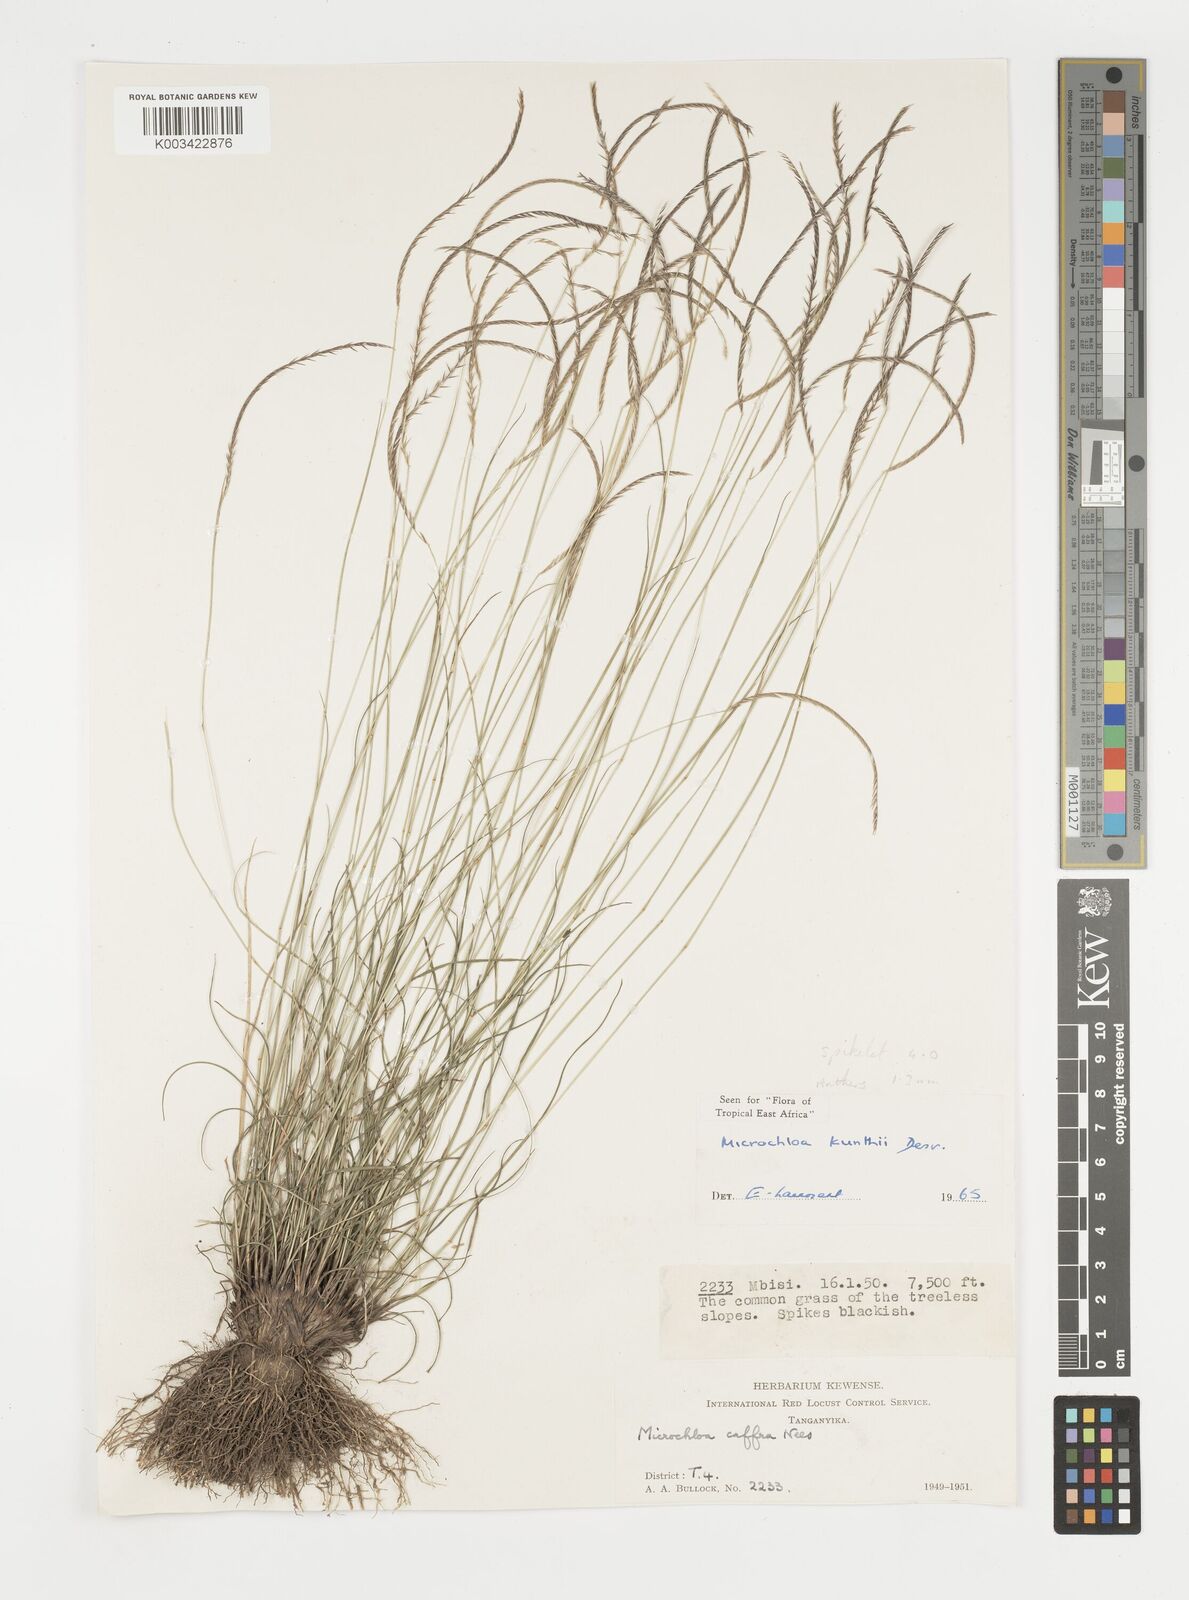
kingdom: Plantae
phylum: Tracheophyta
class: Liliopsida
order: Poales
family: Poaceae
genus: Microchloa
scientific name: Microchloa kunthii
